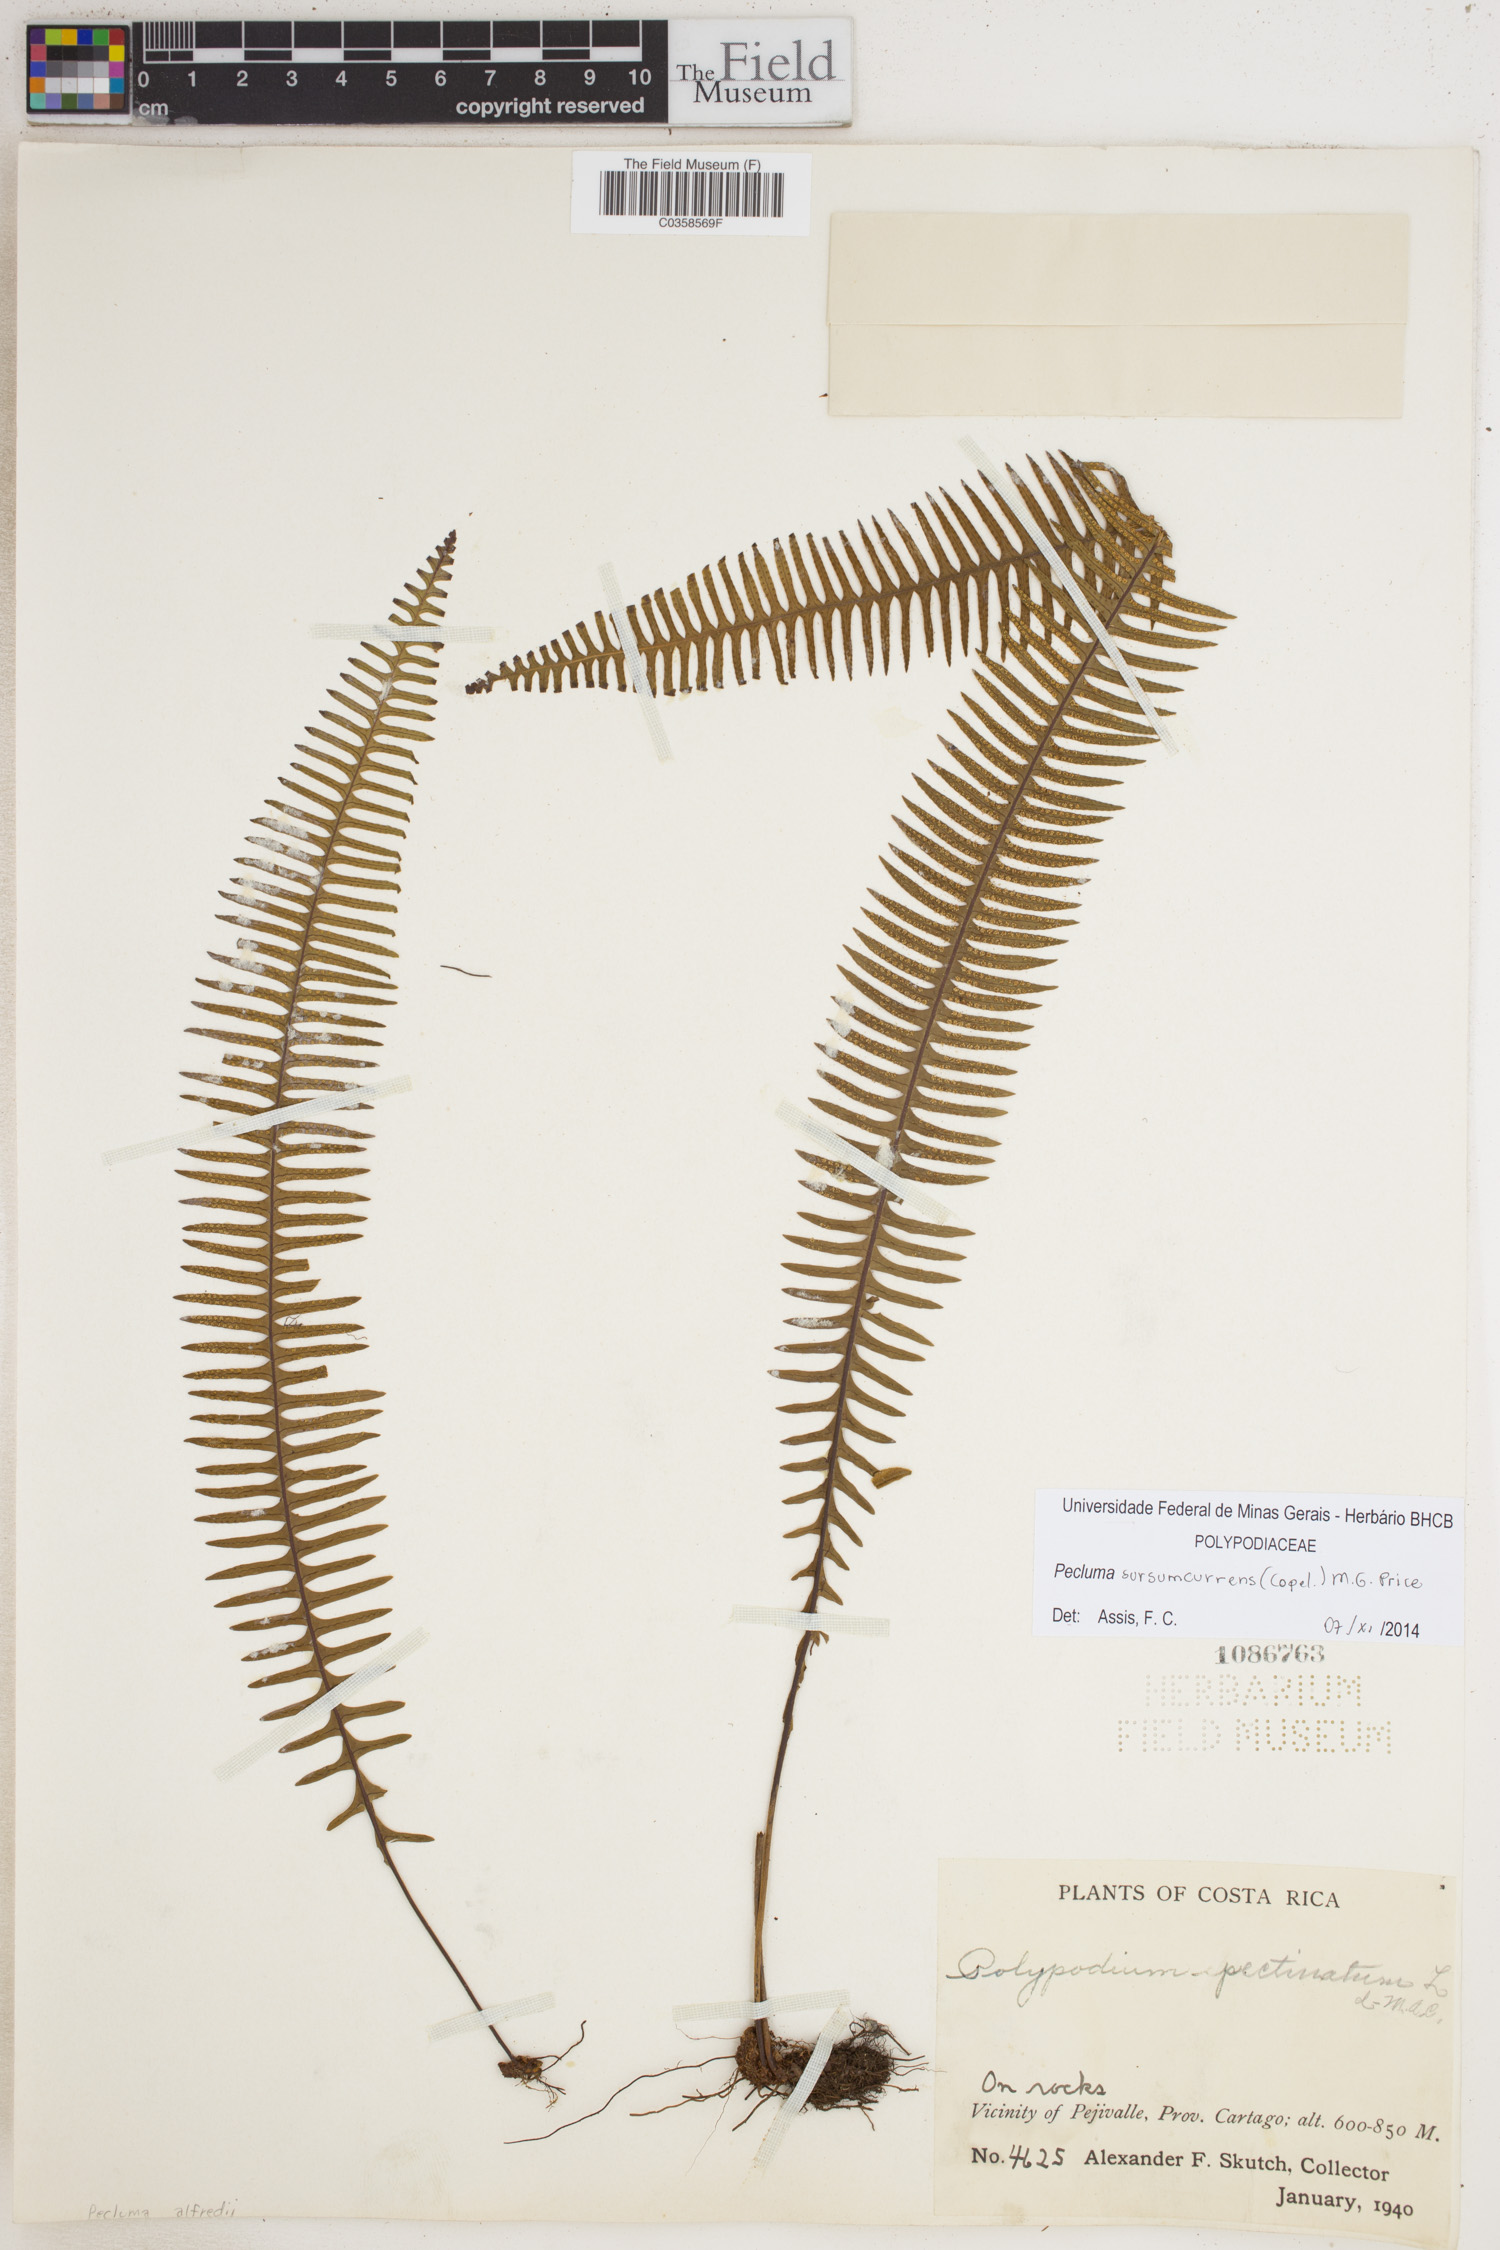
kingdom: Plantae
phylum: Tracheophyta
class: Polypodiopsida
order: Polypodiales
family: Polypodiaceae
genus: Pecluma
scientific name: Pecluma sursumcurrens
